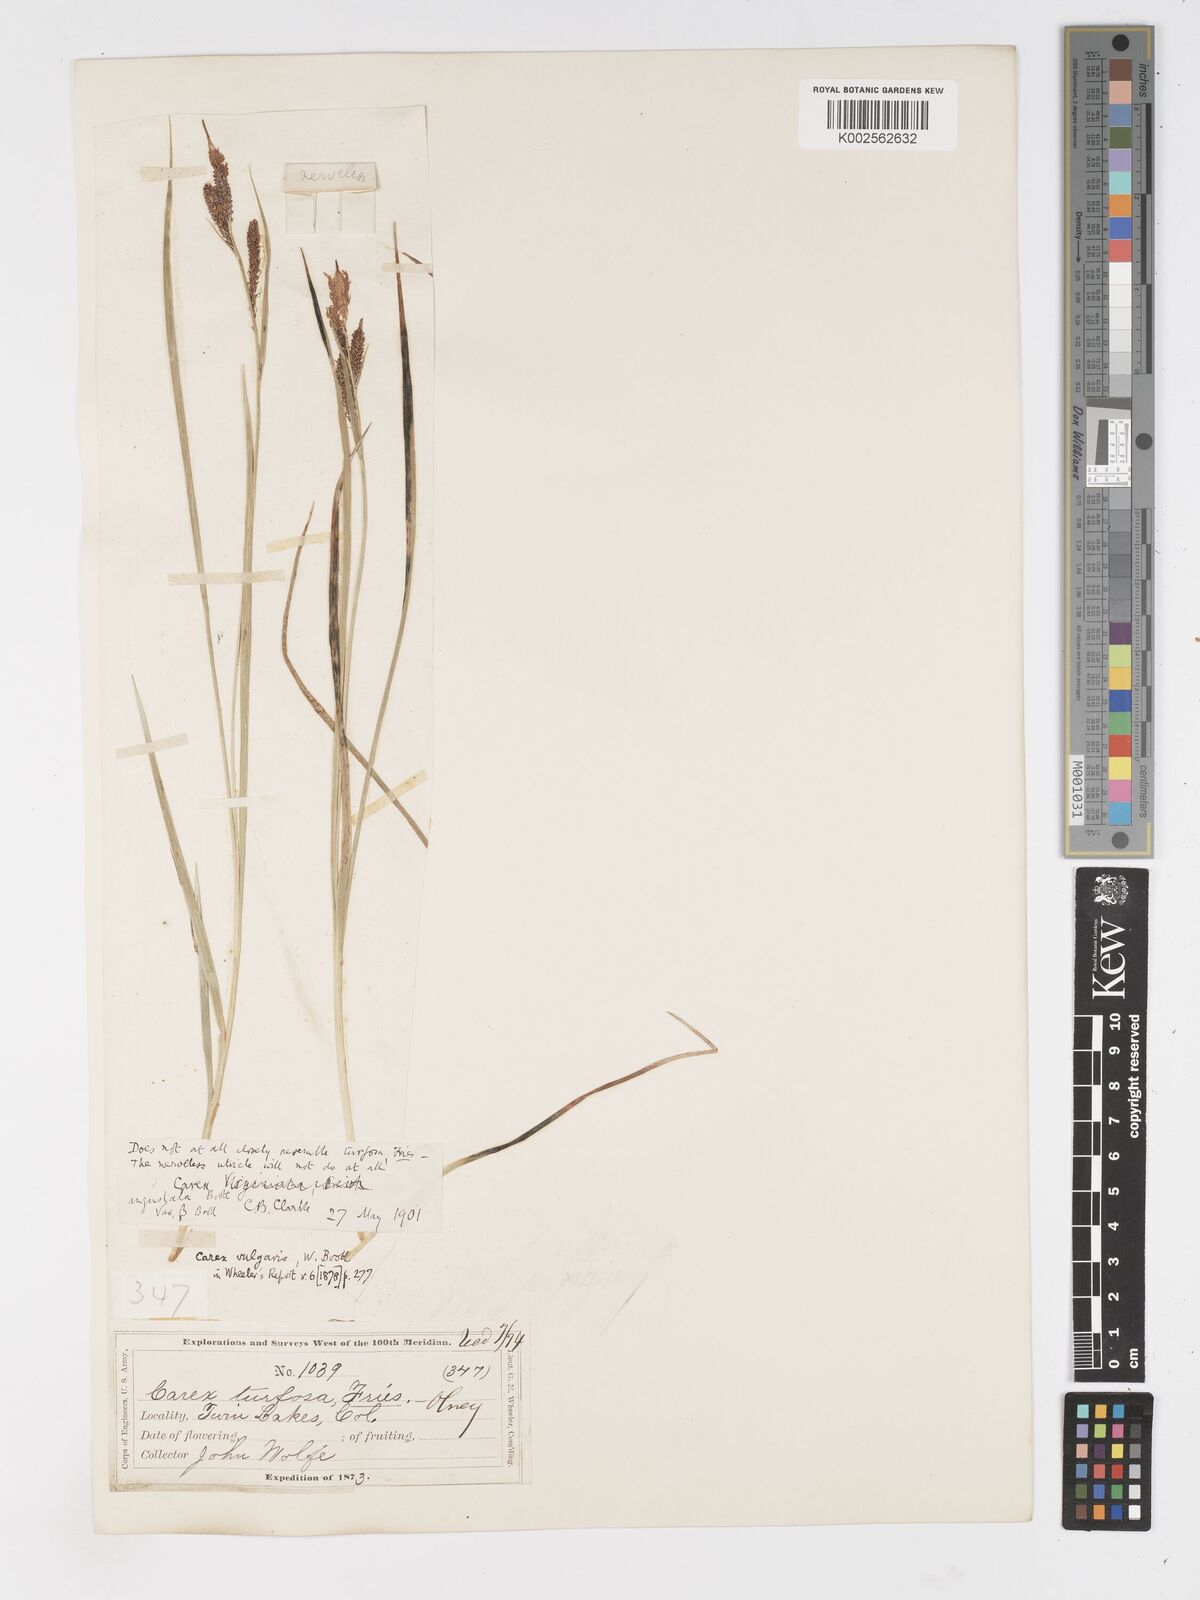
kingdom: Plantae
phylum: Tracheophyta
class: Liliopsida
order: Poales
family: Cyperaceae
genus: Carex
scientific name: Carex stricta
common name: Hummock sedge
